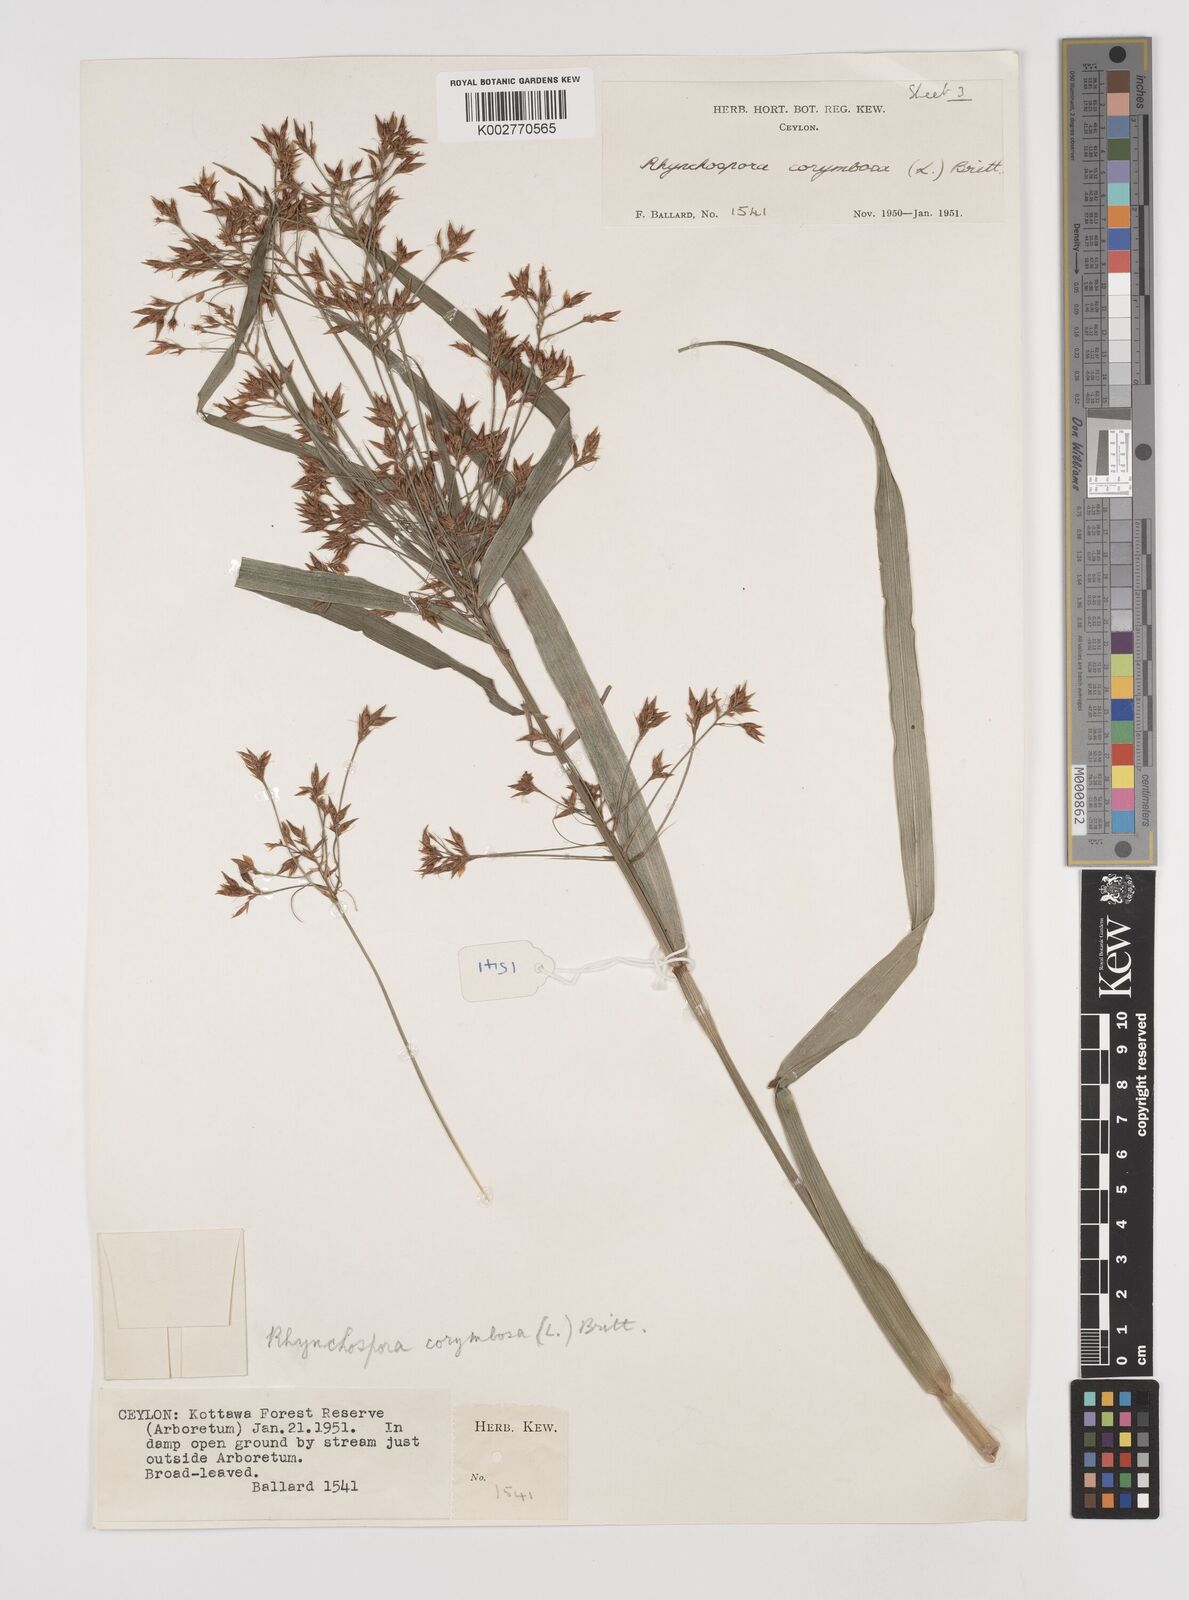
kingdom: Plantae
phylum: Tracheophyta
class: Liliopsida
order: Poales
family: Cyperaceae
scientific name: Cyperaceae
